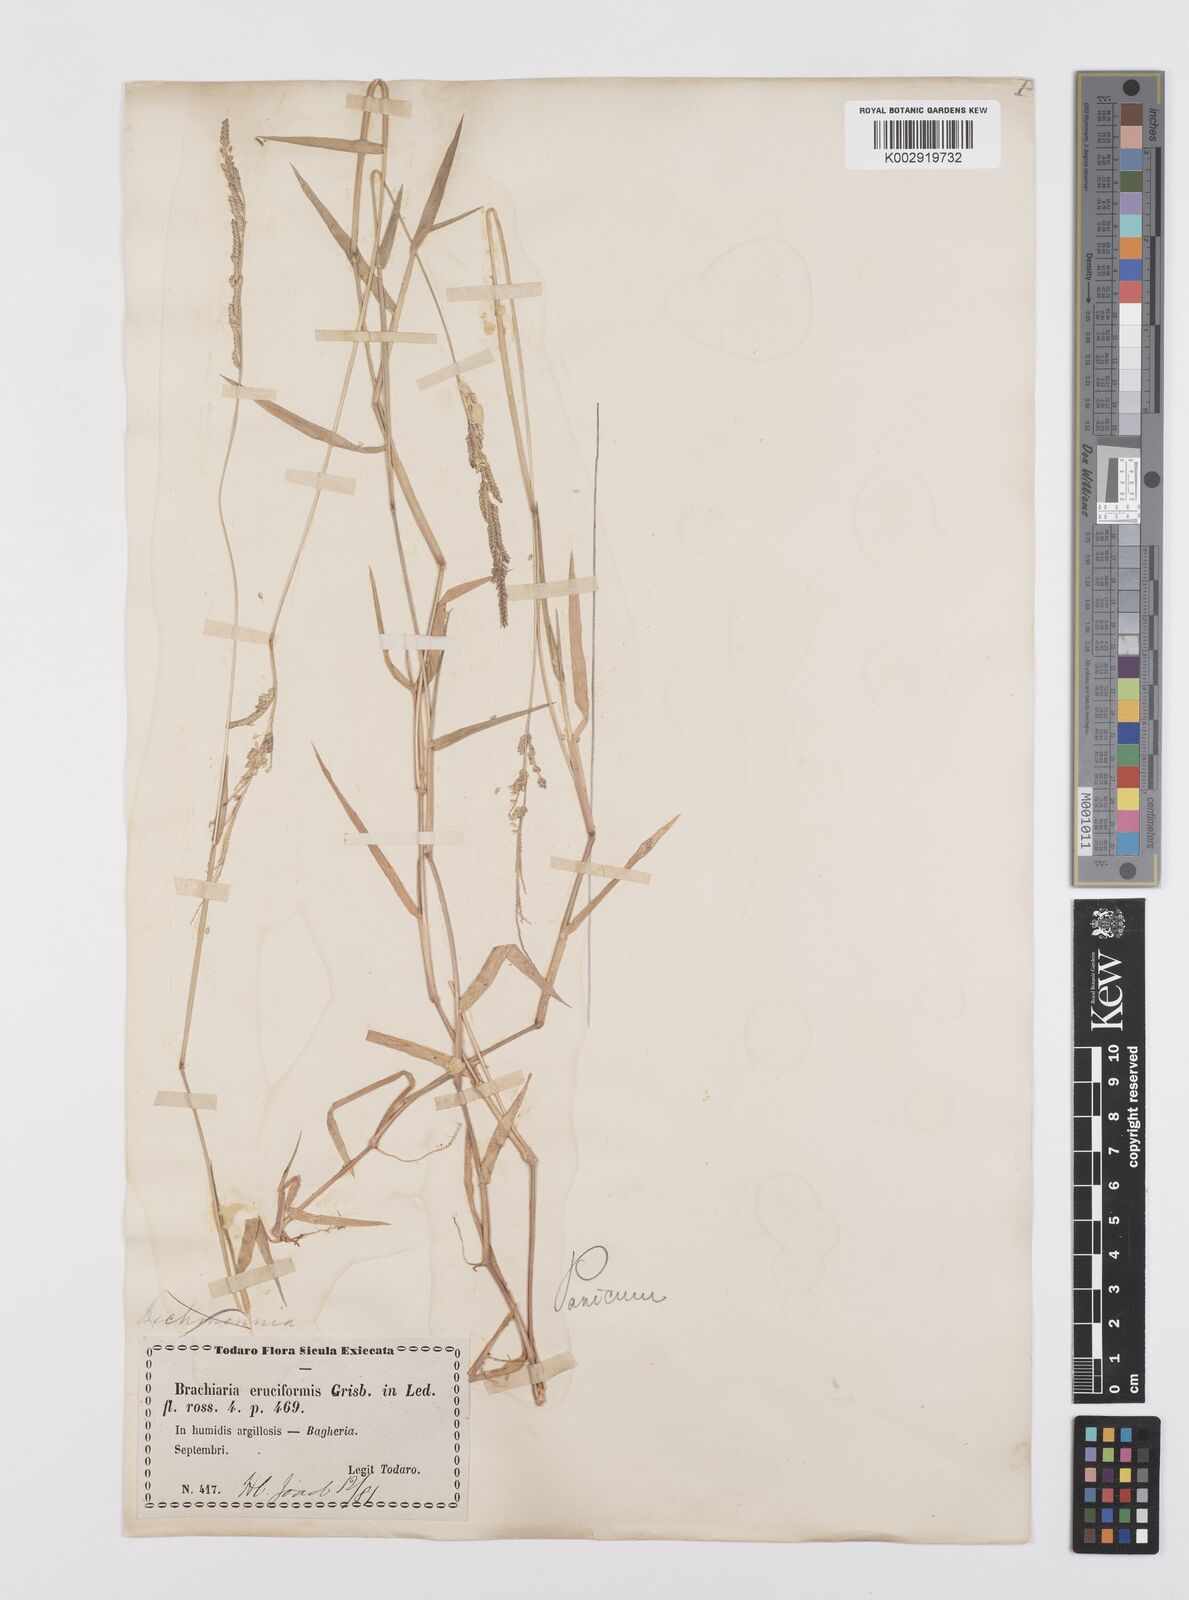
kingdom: Plantae
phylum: Tracheophyta
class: Liliopsida
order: Poales
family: Poaceae
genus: Moorochloa
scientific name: Moorochloa eruciformis
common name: Sweet signalgrass
